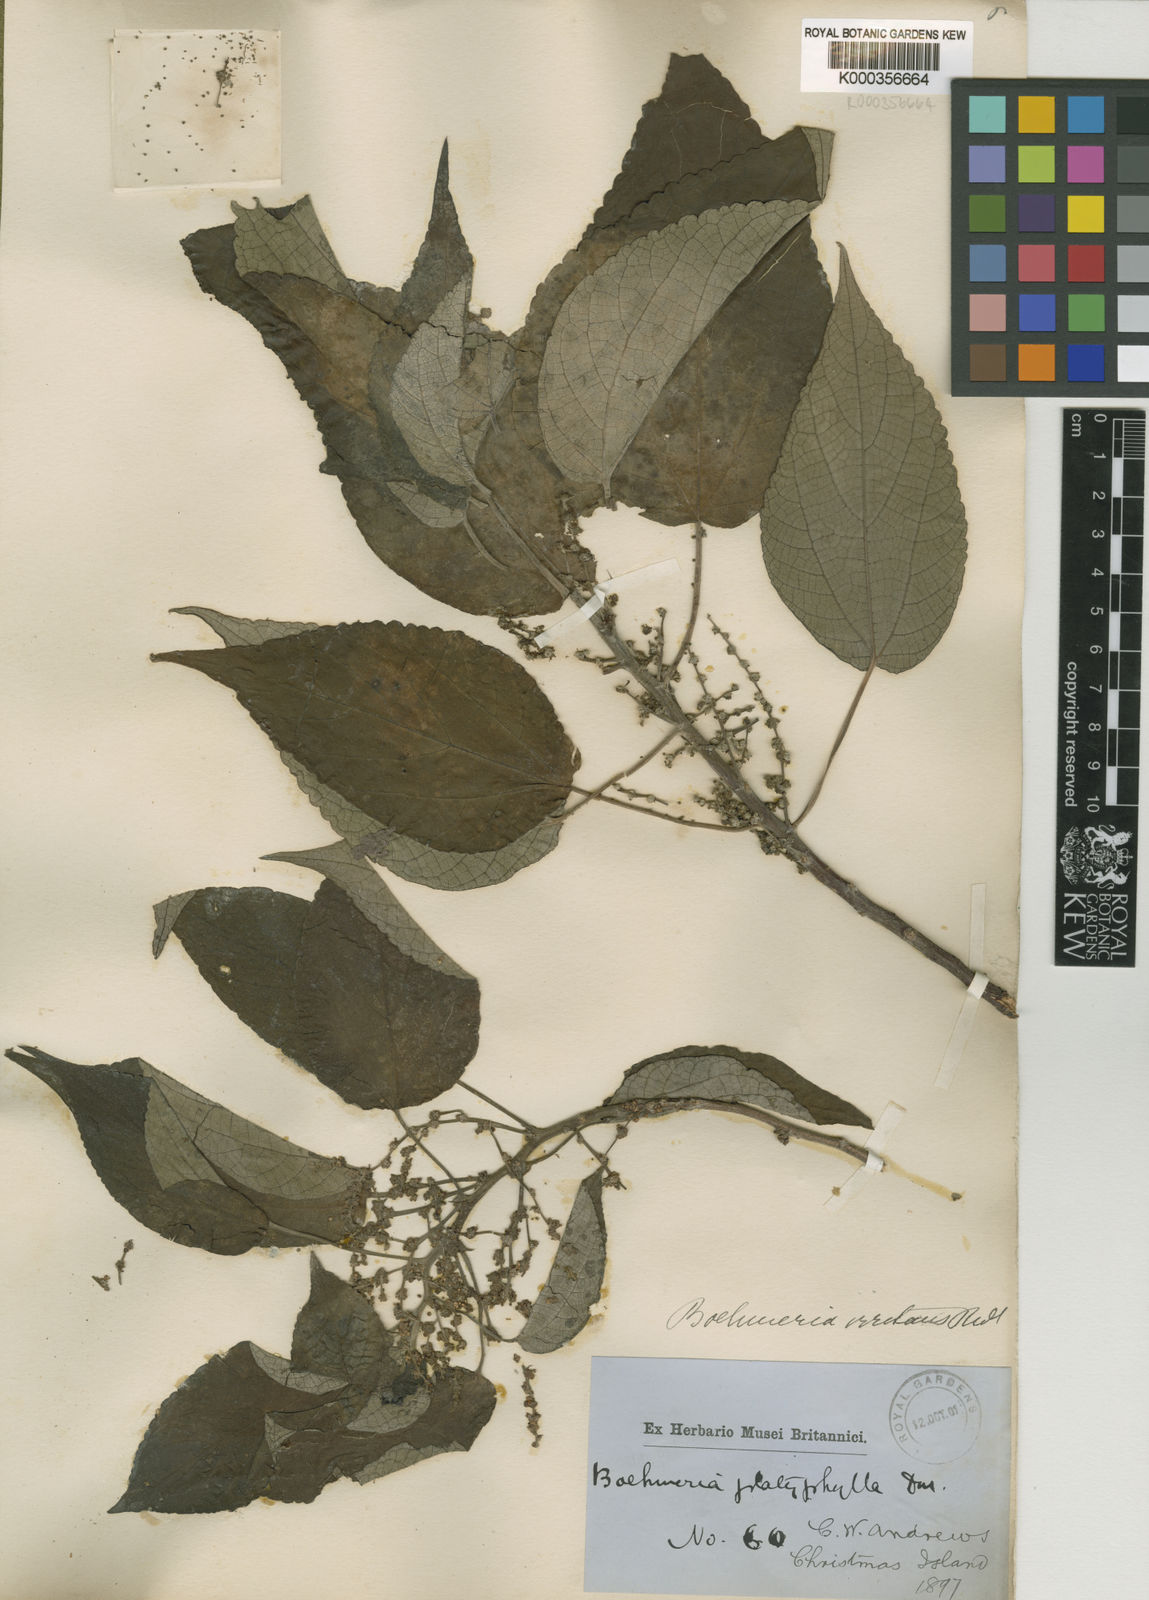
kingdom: Plantae
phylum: Tracheophyta
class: Magnoliopsida
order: Rosales
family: Urticaceae
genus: Pipturus
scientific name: Pipturus argenteus
